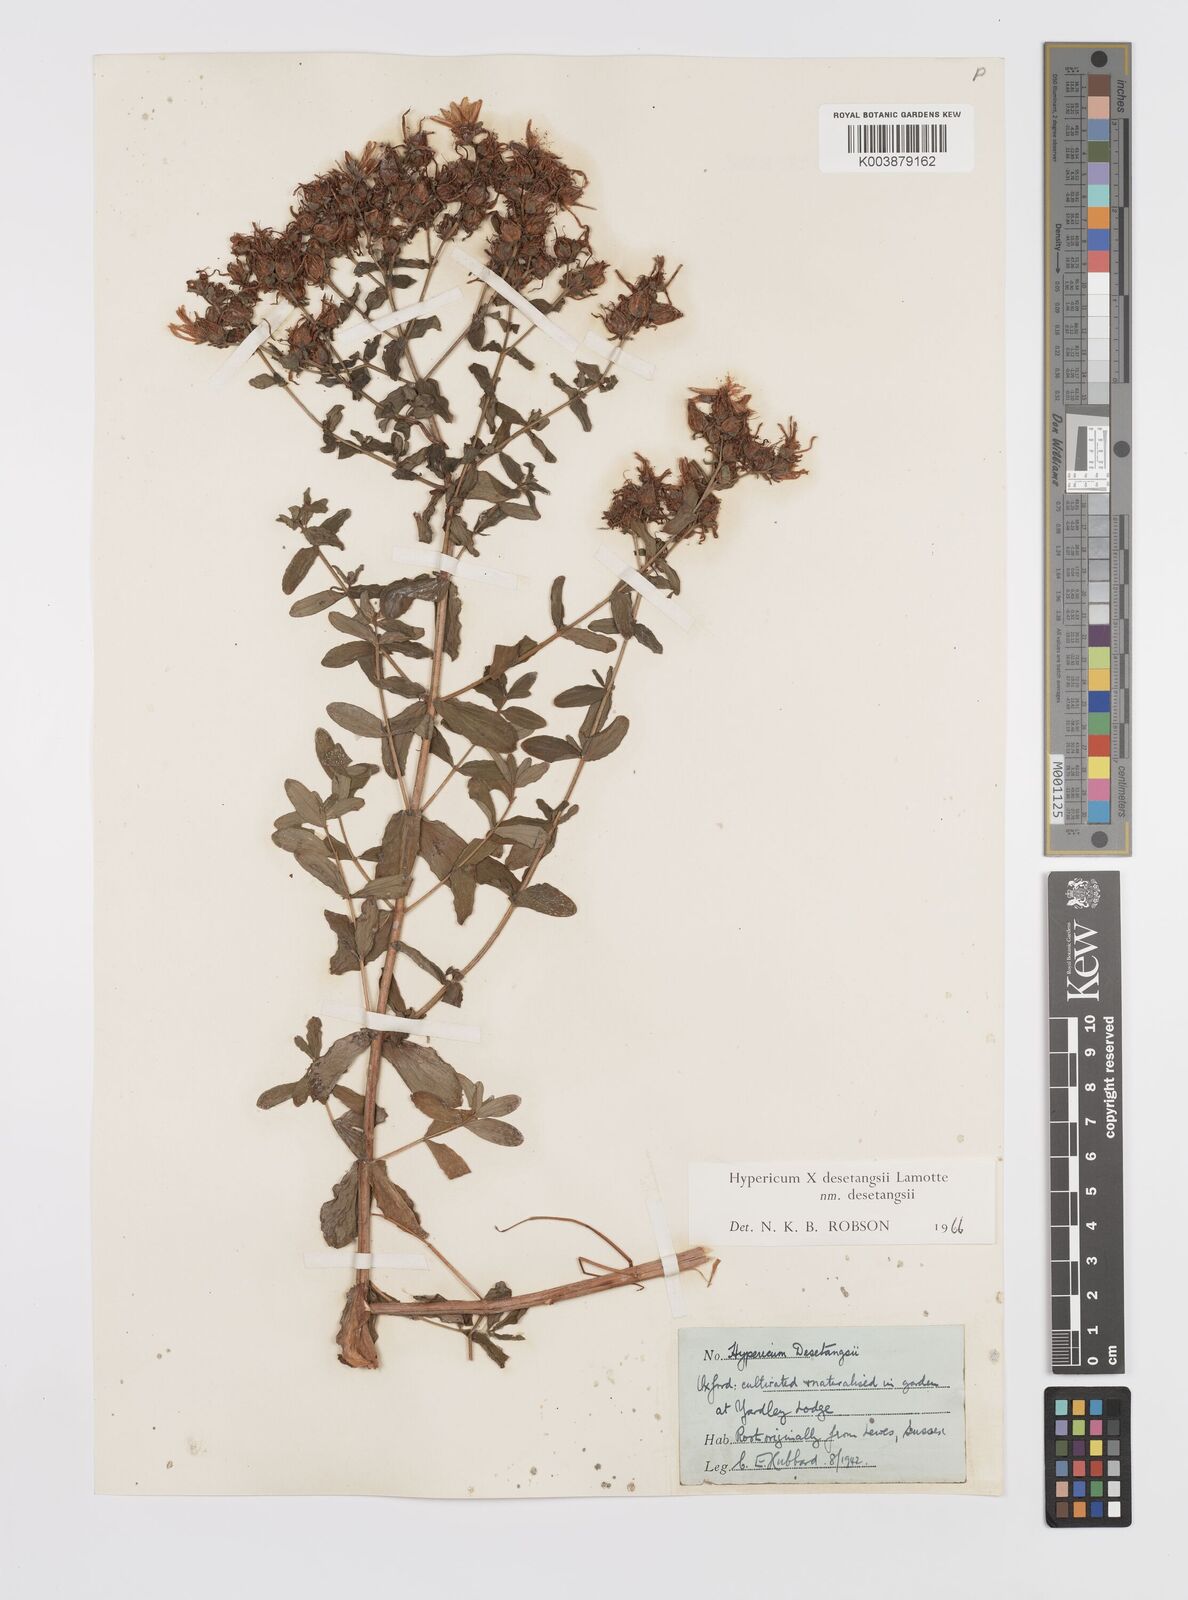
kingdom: Plantae
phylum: Tracheophyta
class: Magnoliopsida
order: Malpighiales
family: Hypericaceae
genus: Hypericum
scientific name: Hypericum desetangsii
